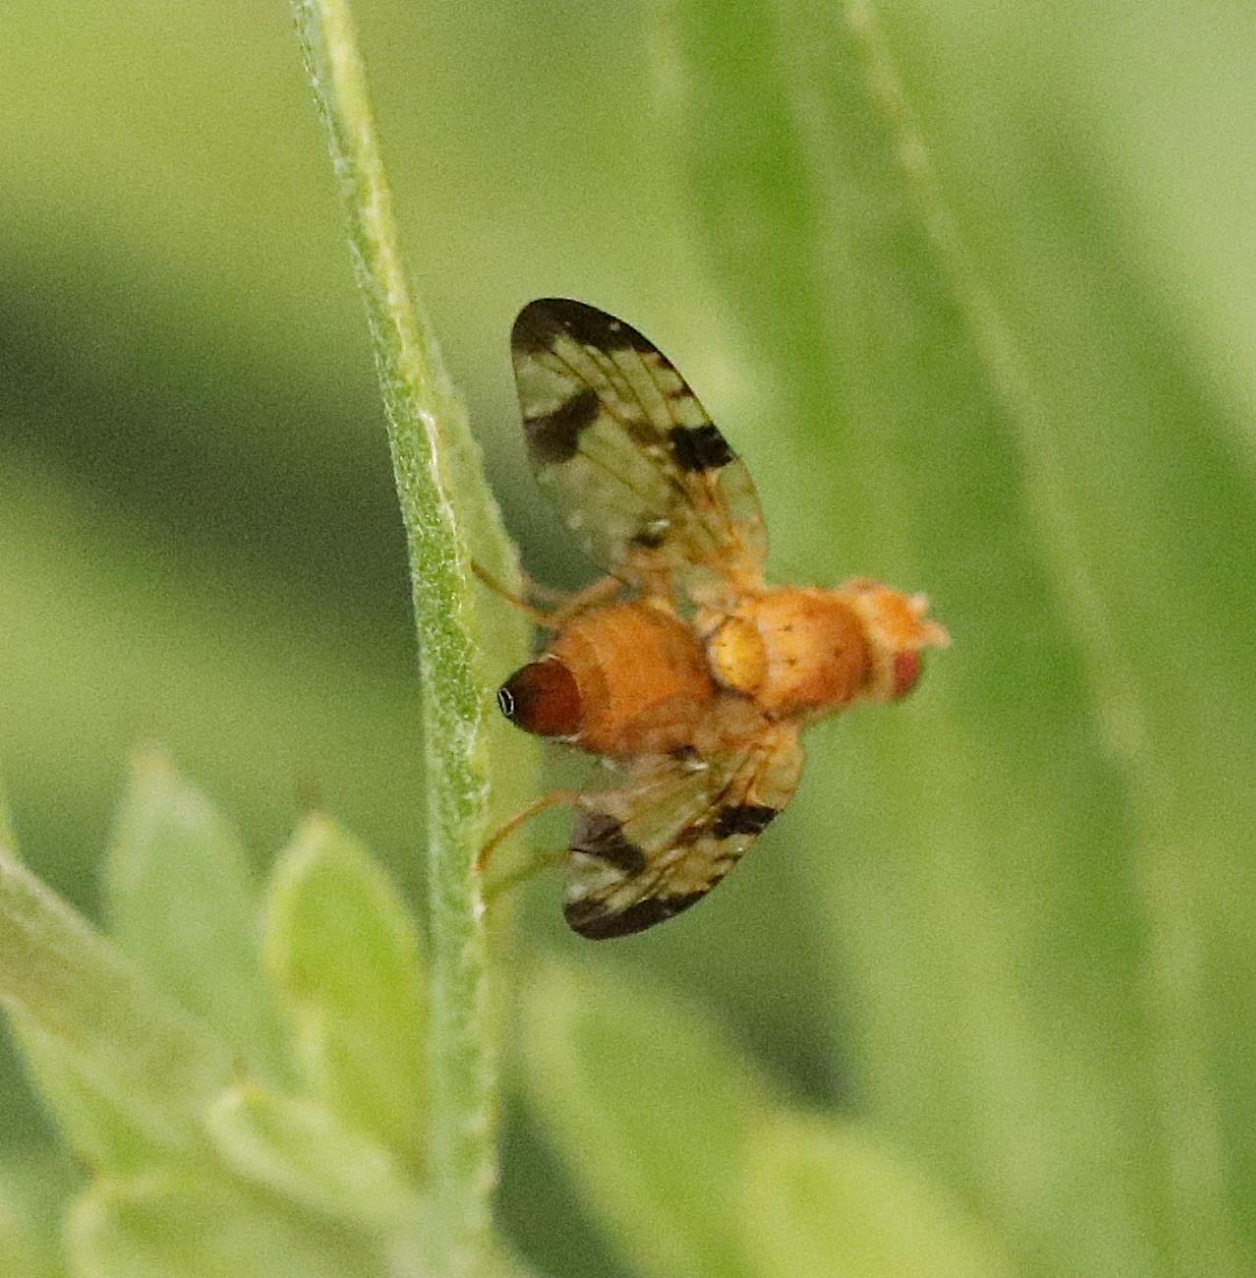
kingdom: Animalia
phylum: Arthropoda
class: Insecta
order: Diptera
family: Tephritidae
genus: Xyphosia
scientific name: Xyphosia miliaria
